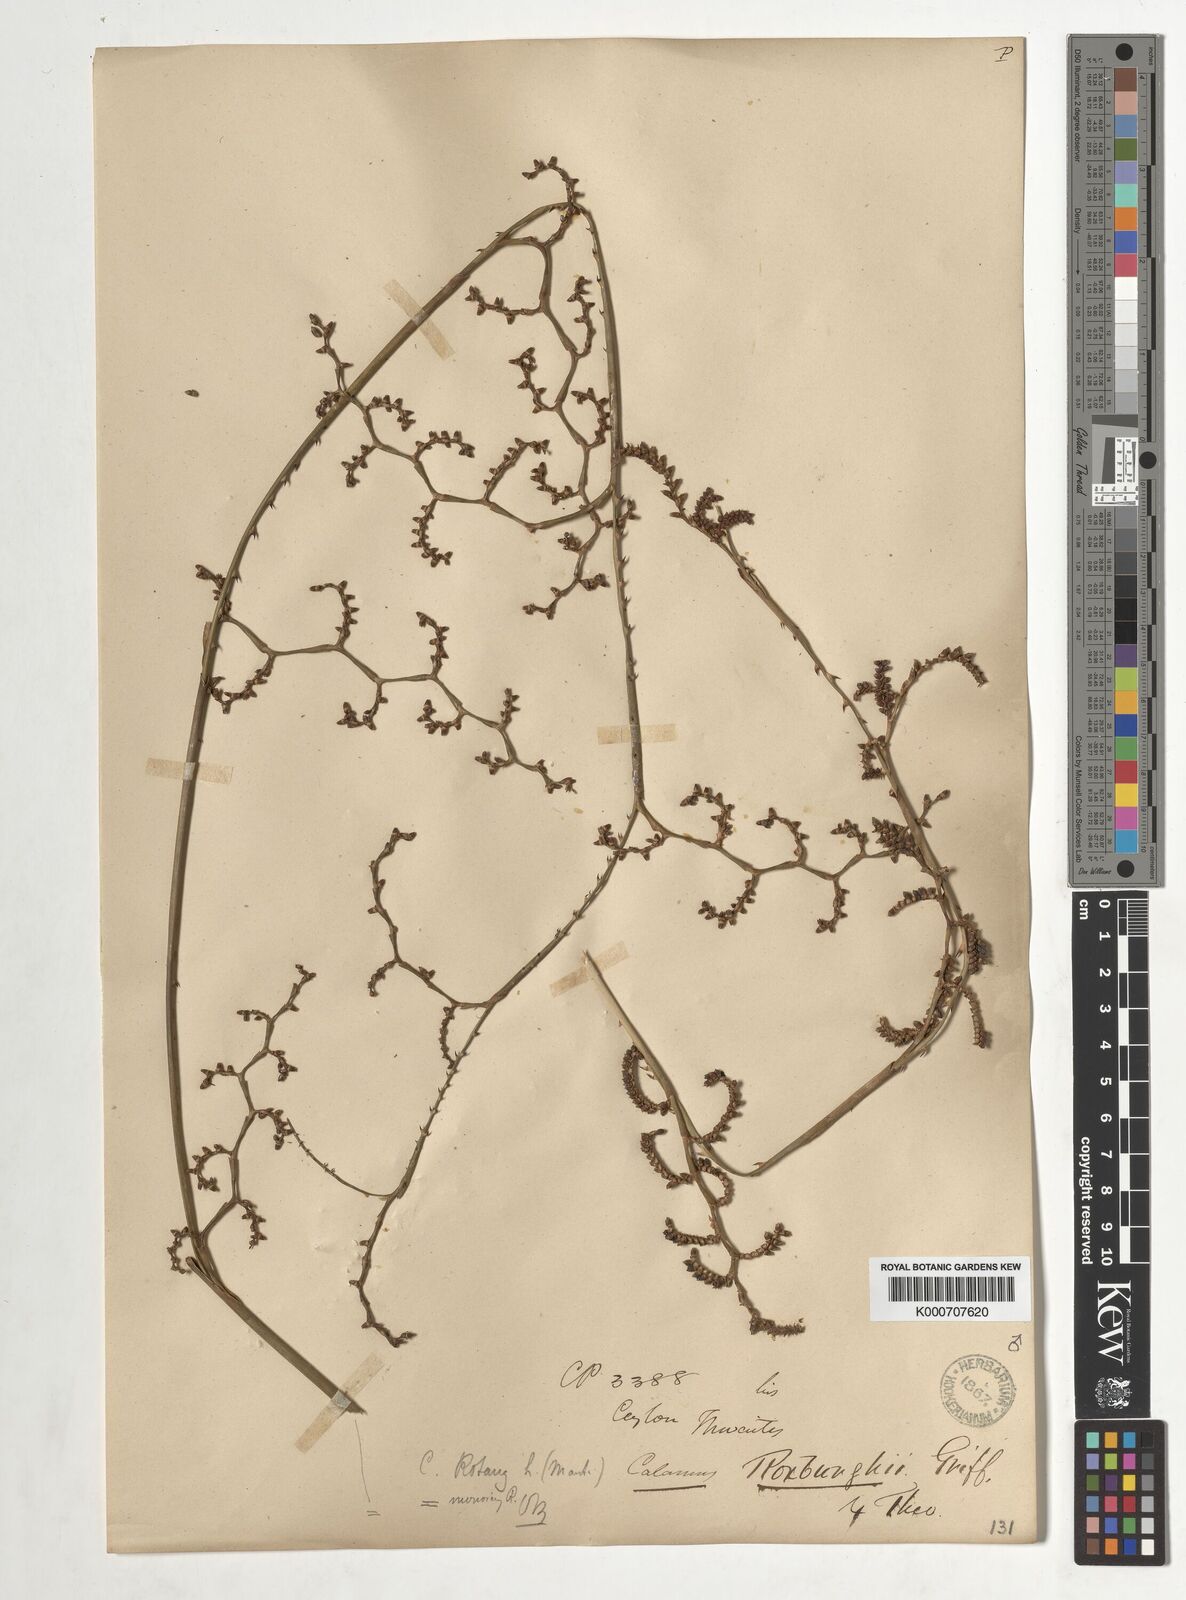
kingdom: Plantae
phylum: Tracheophyta
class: Liliopsida
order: Arecales
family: Arecaceae
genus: Calamus
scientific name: Calamus rotang
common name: Rattan cane
